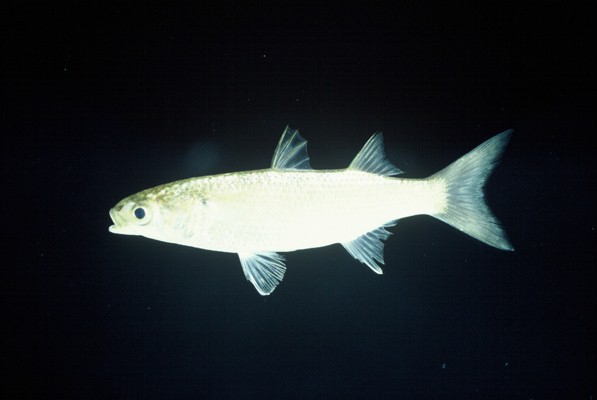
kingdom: Animalia
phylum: Chordata
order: Mugiliformes
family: Mugilidae
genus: Mugil
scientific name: Mugil cephalus
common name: Grey mullet
